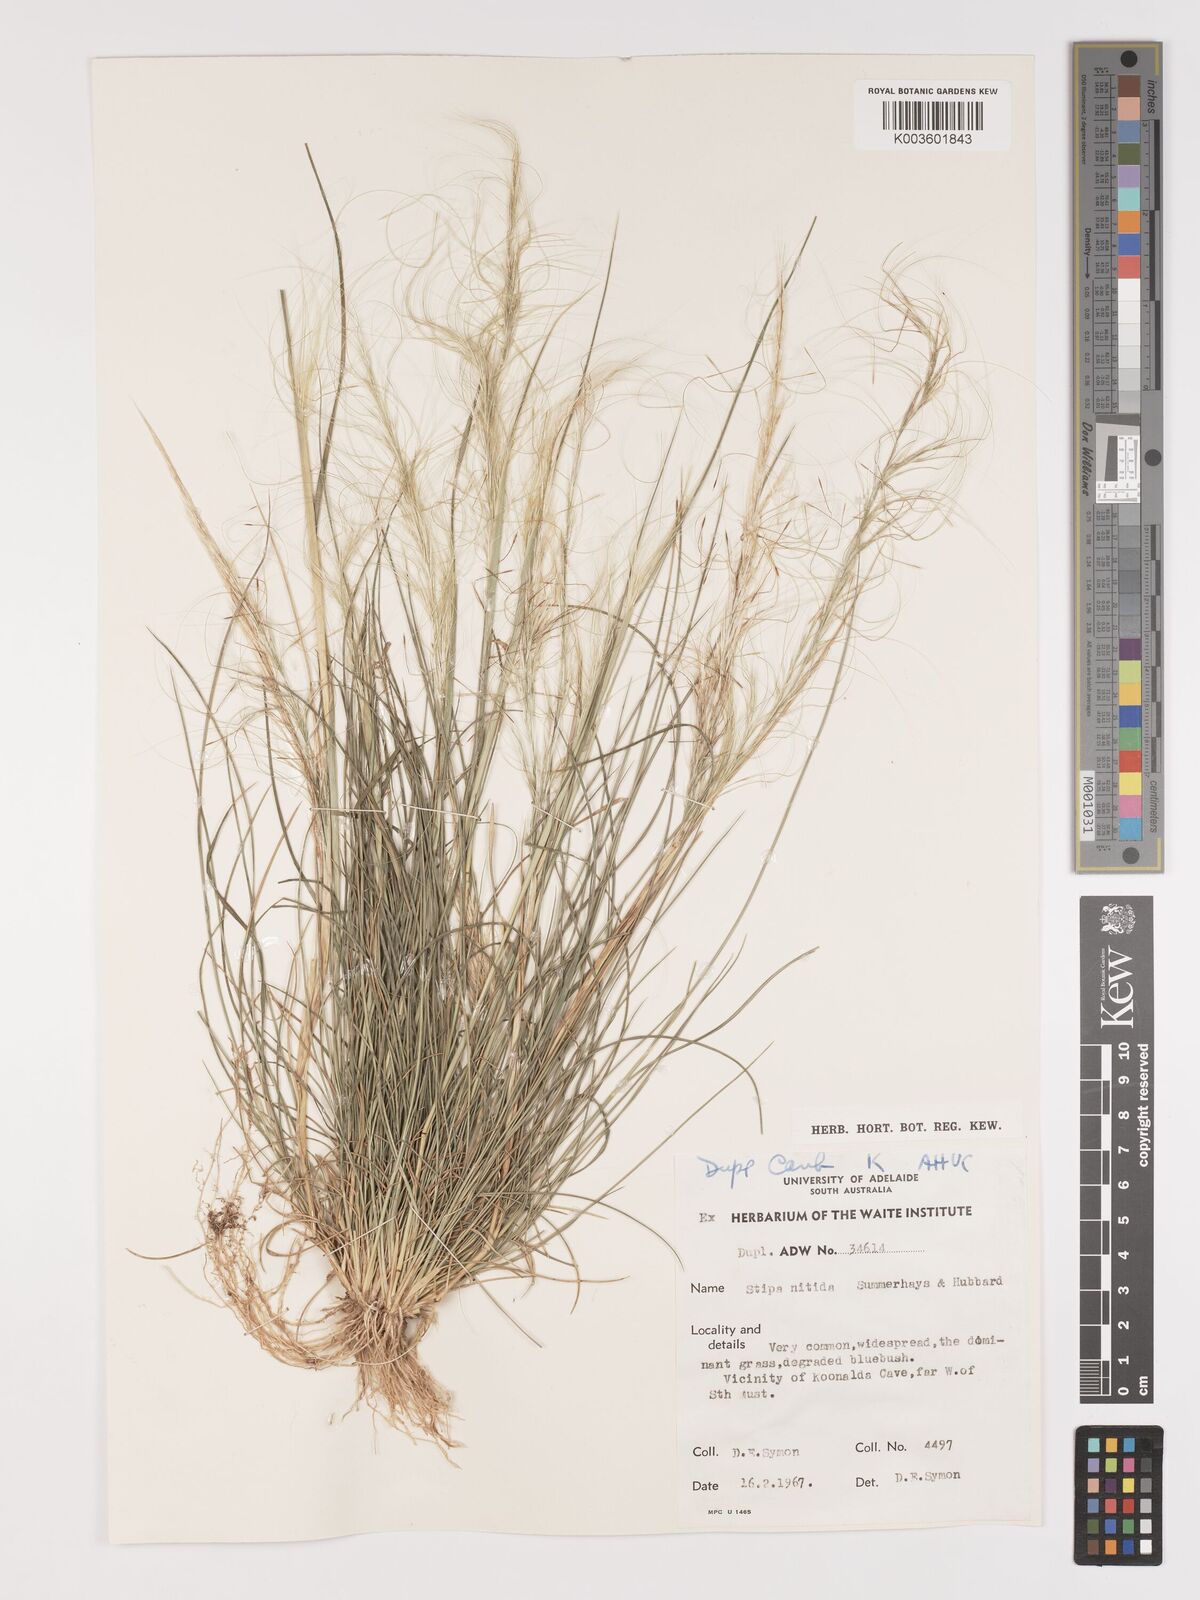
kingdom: Plantae
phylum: Tracheophyta
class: Liliopsida
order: Poales
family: Poaceae
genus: Austrostipa
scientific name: Austrostipa nitida
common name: Balcarra grass
